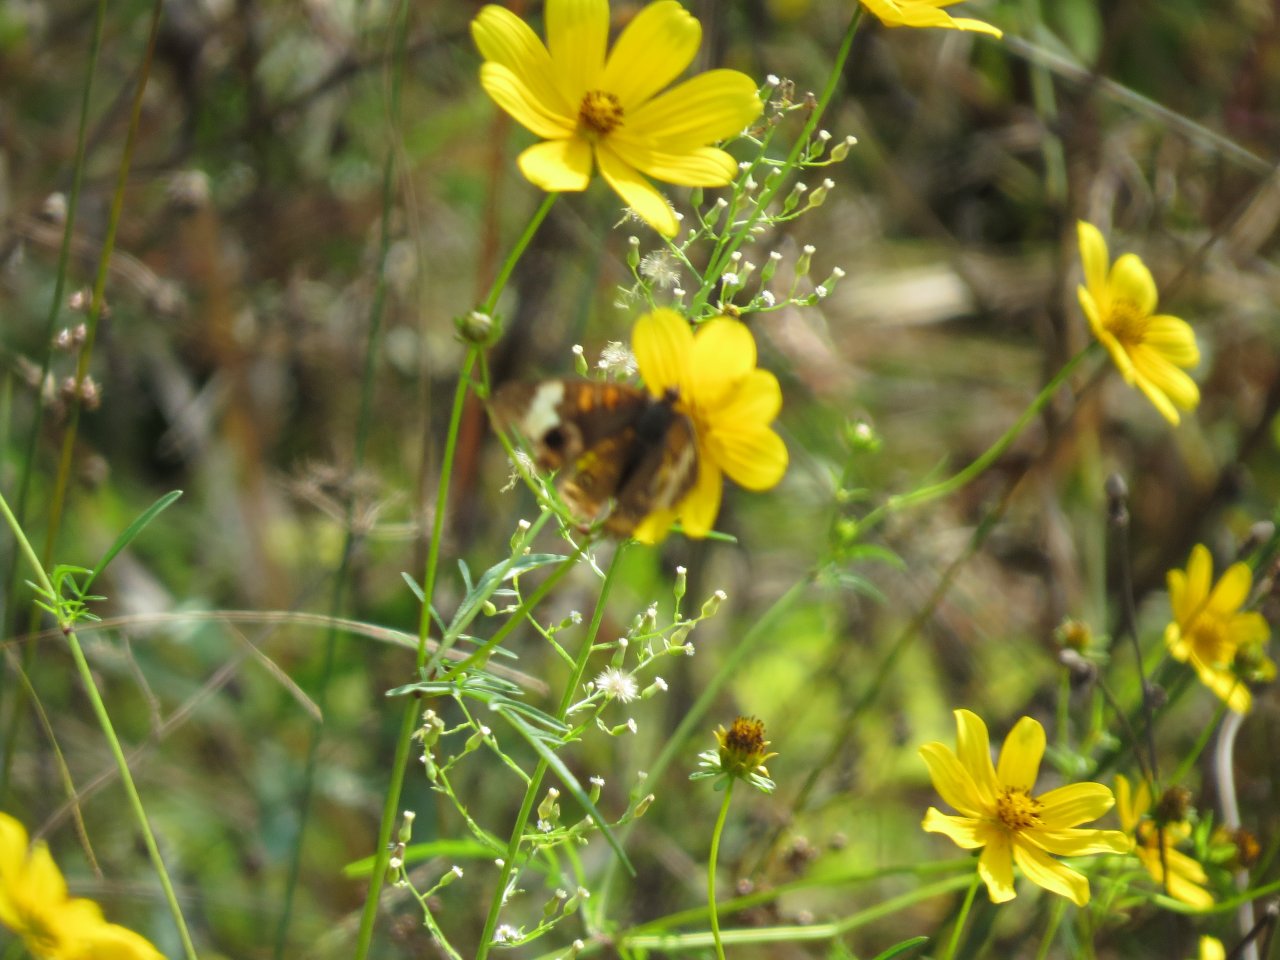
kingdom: Animalia
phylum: Arthropoda
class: Insecta
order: Lepidoptera
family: Nymphalidae
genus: Junonia
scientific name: Junonia coenia
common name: Common Buckeye
